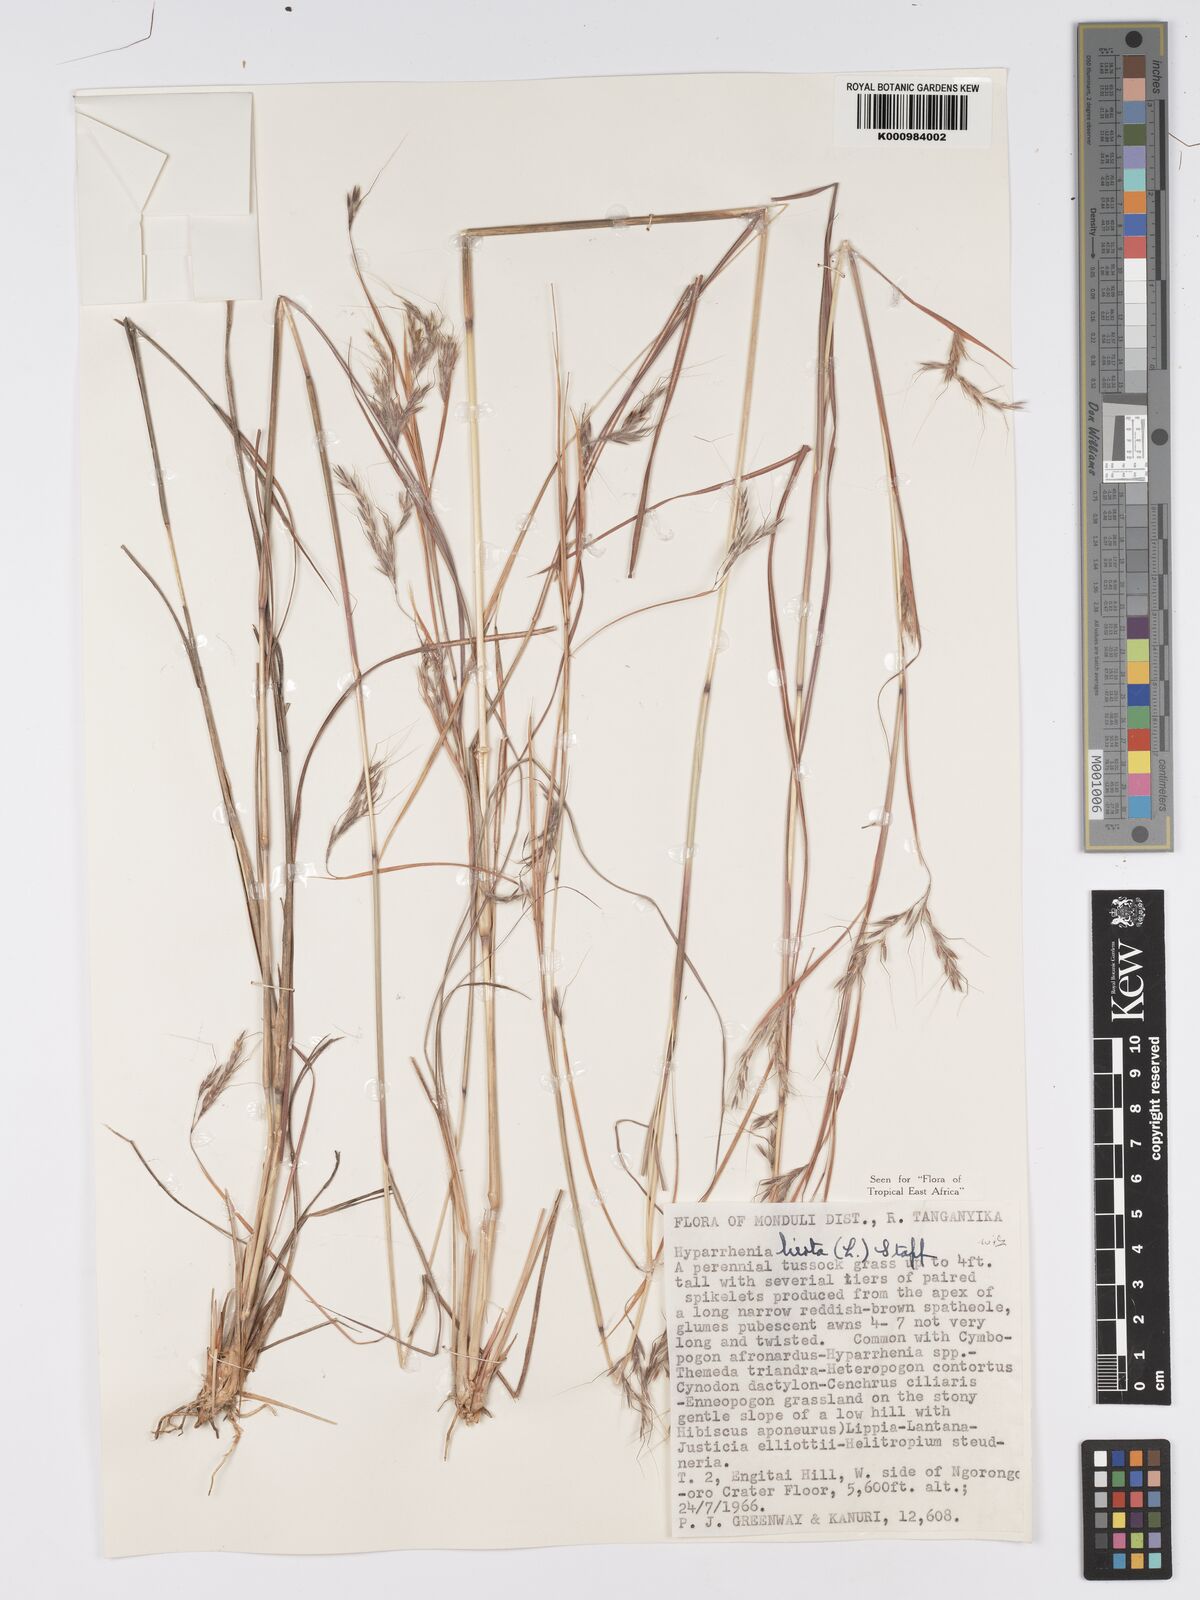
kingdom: Plantae
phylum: Tracheophyta
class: Liliopsida
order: Poales
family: Poaceae
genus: Hyparrhenia
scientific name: Hyparrhenia hirta
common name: Thatching grass
